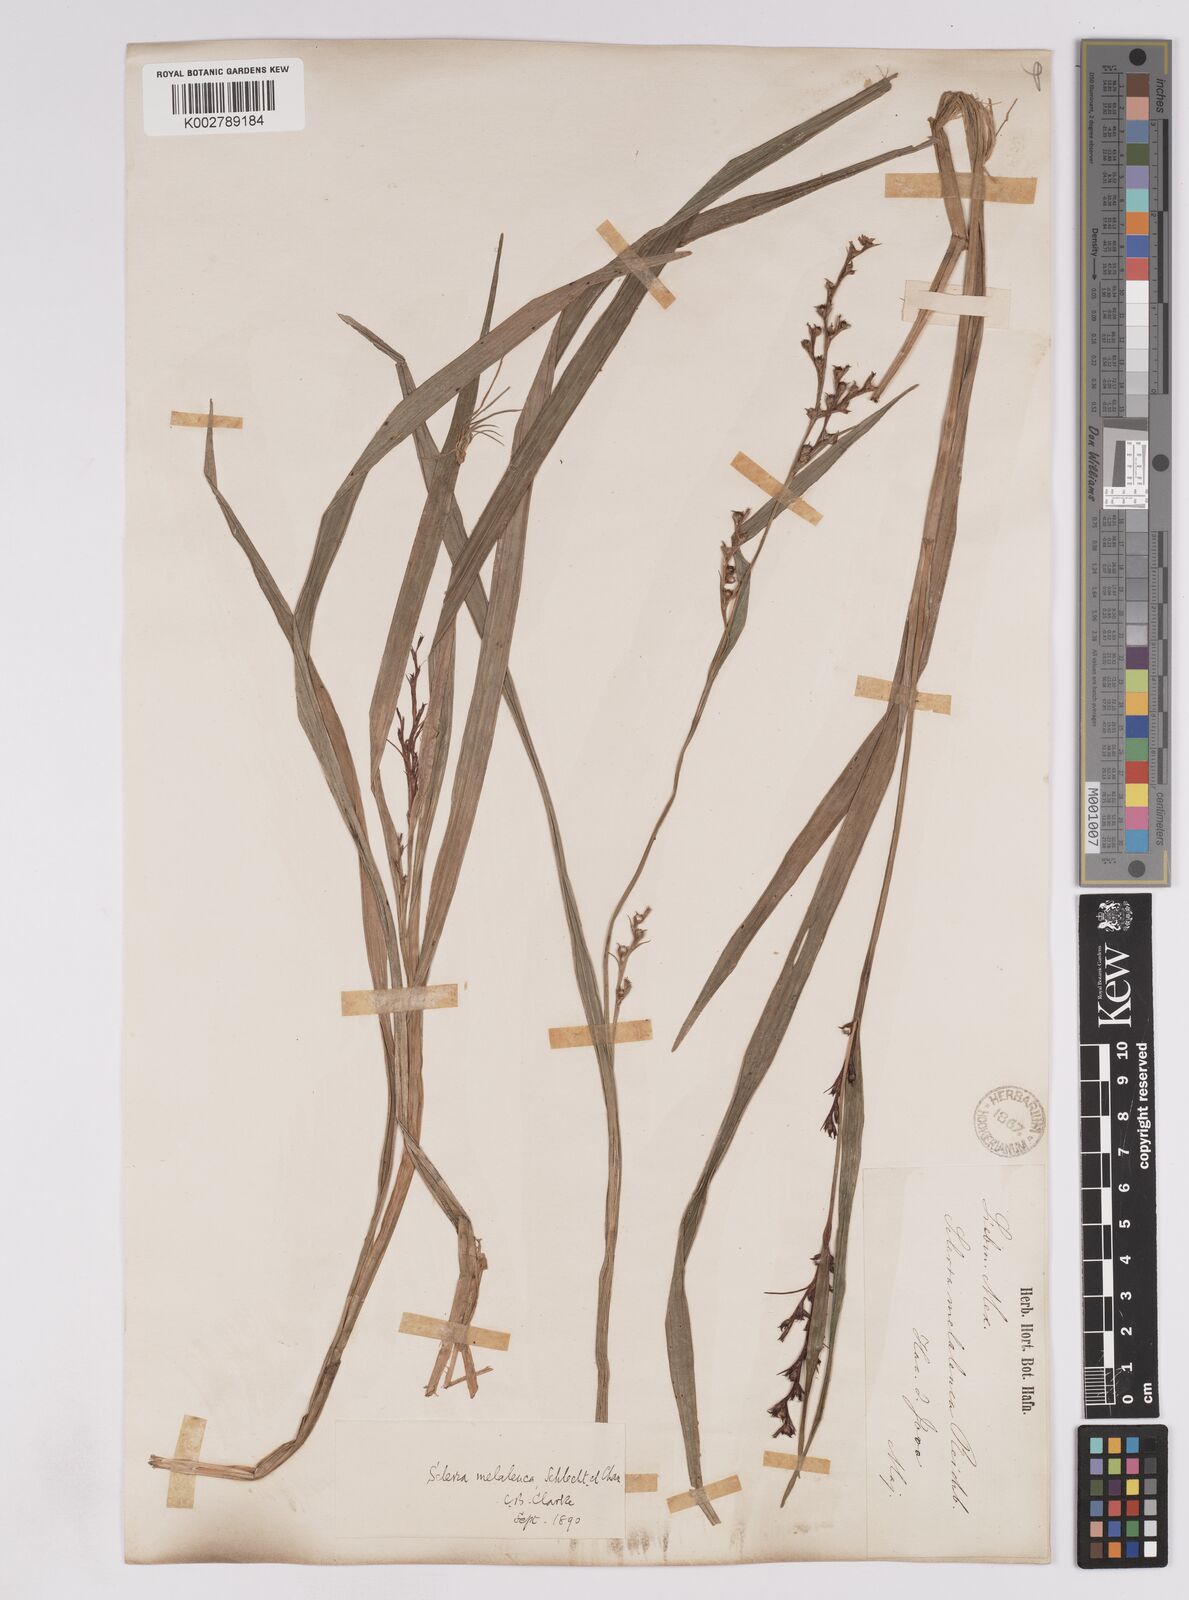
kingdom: Plantae
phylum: Tracheophyta
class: Liliopsida
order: Poales
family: Cyperaceae
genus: Scleria
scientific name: Scleria gaertneri
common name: Cortadera blanca
